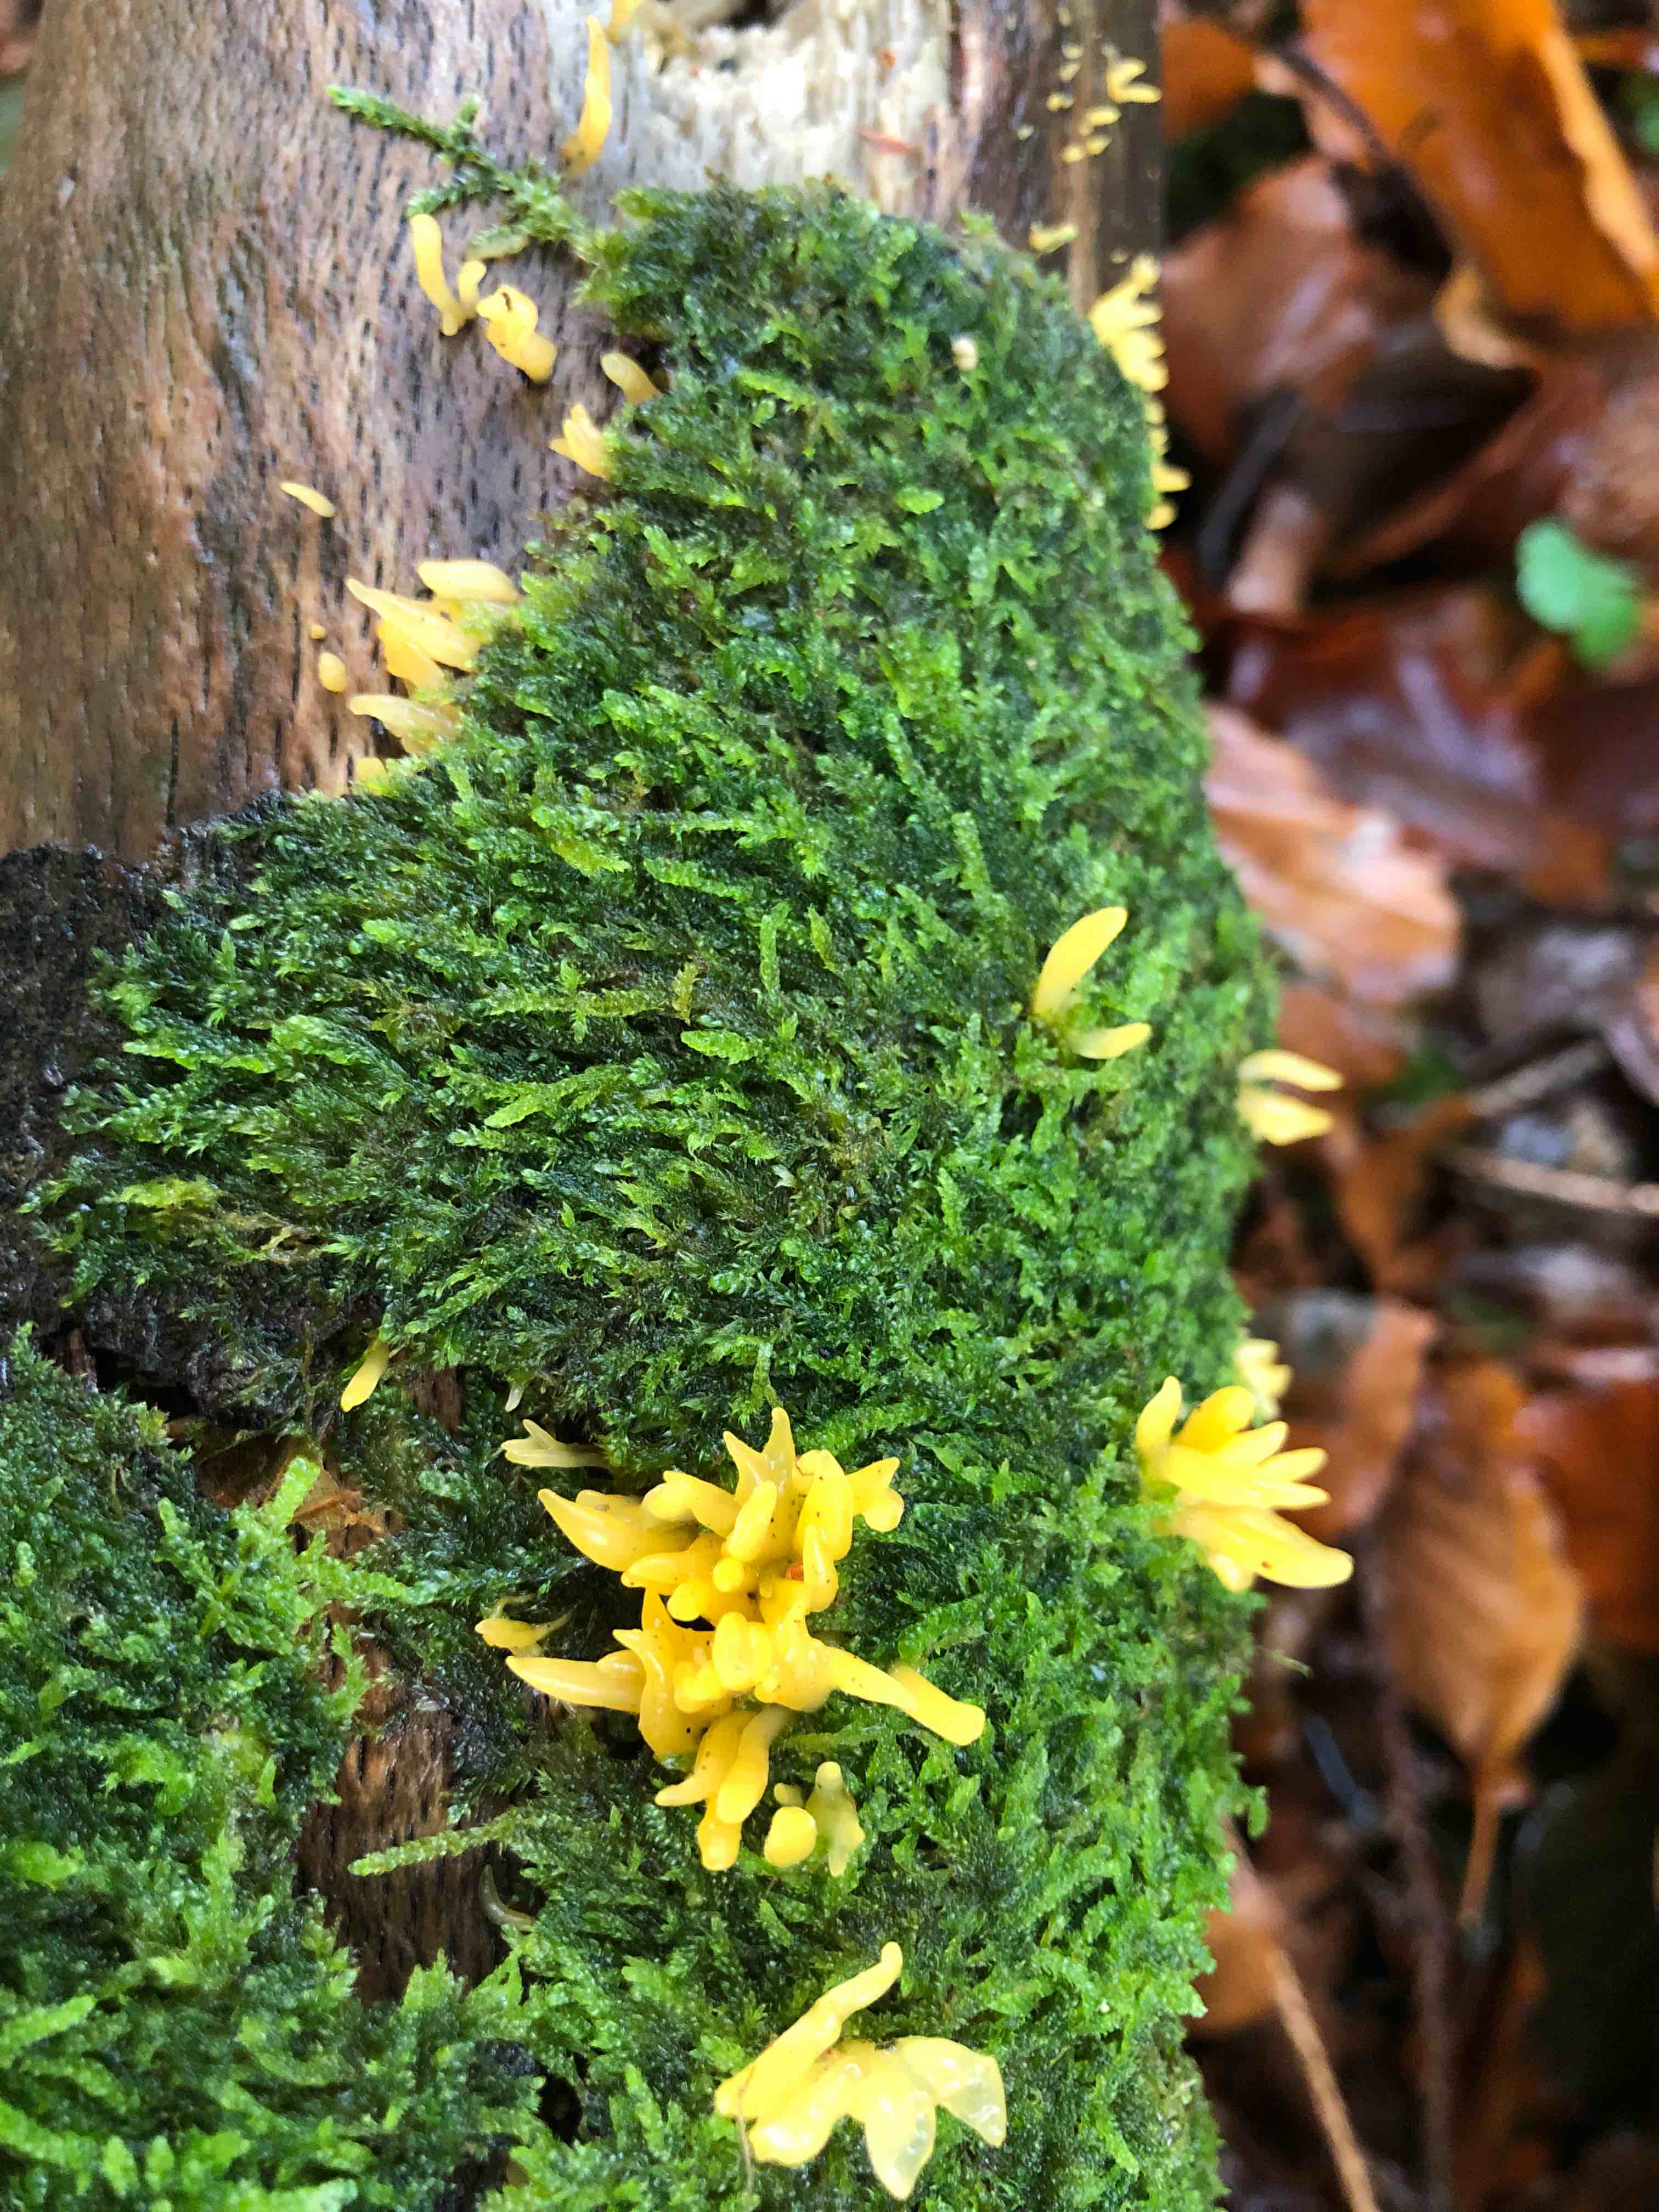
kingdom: Fungi
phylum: Basidiomycota
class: Dacrymycetes
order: Dacrymycetales
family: Dacrymycetaceae
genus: Calocera
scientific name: Calocera cornea
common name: liden guldgaffel
